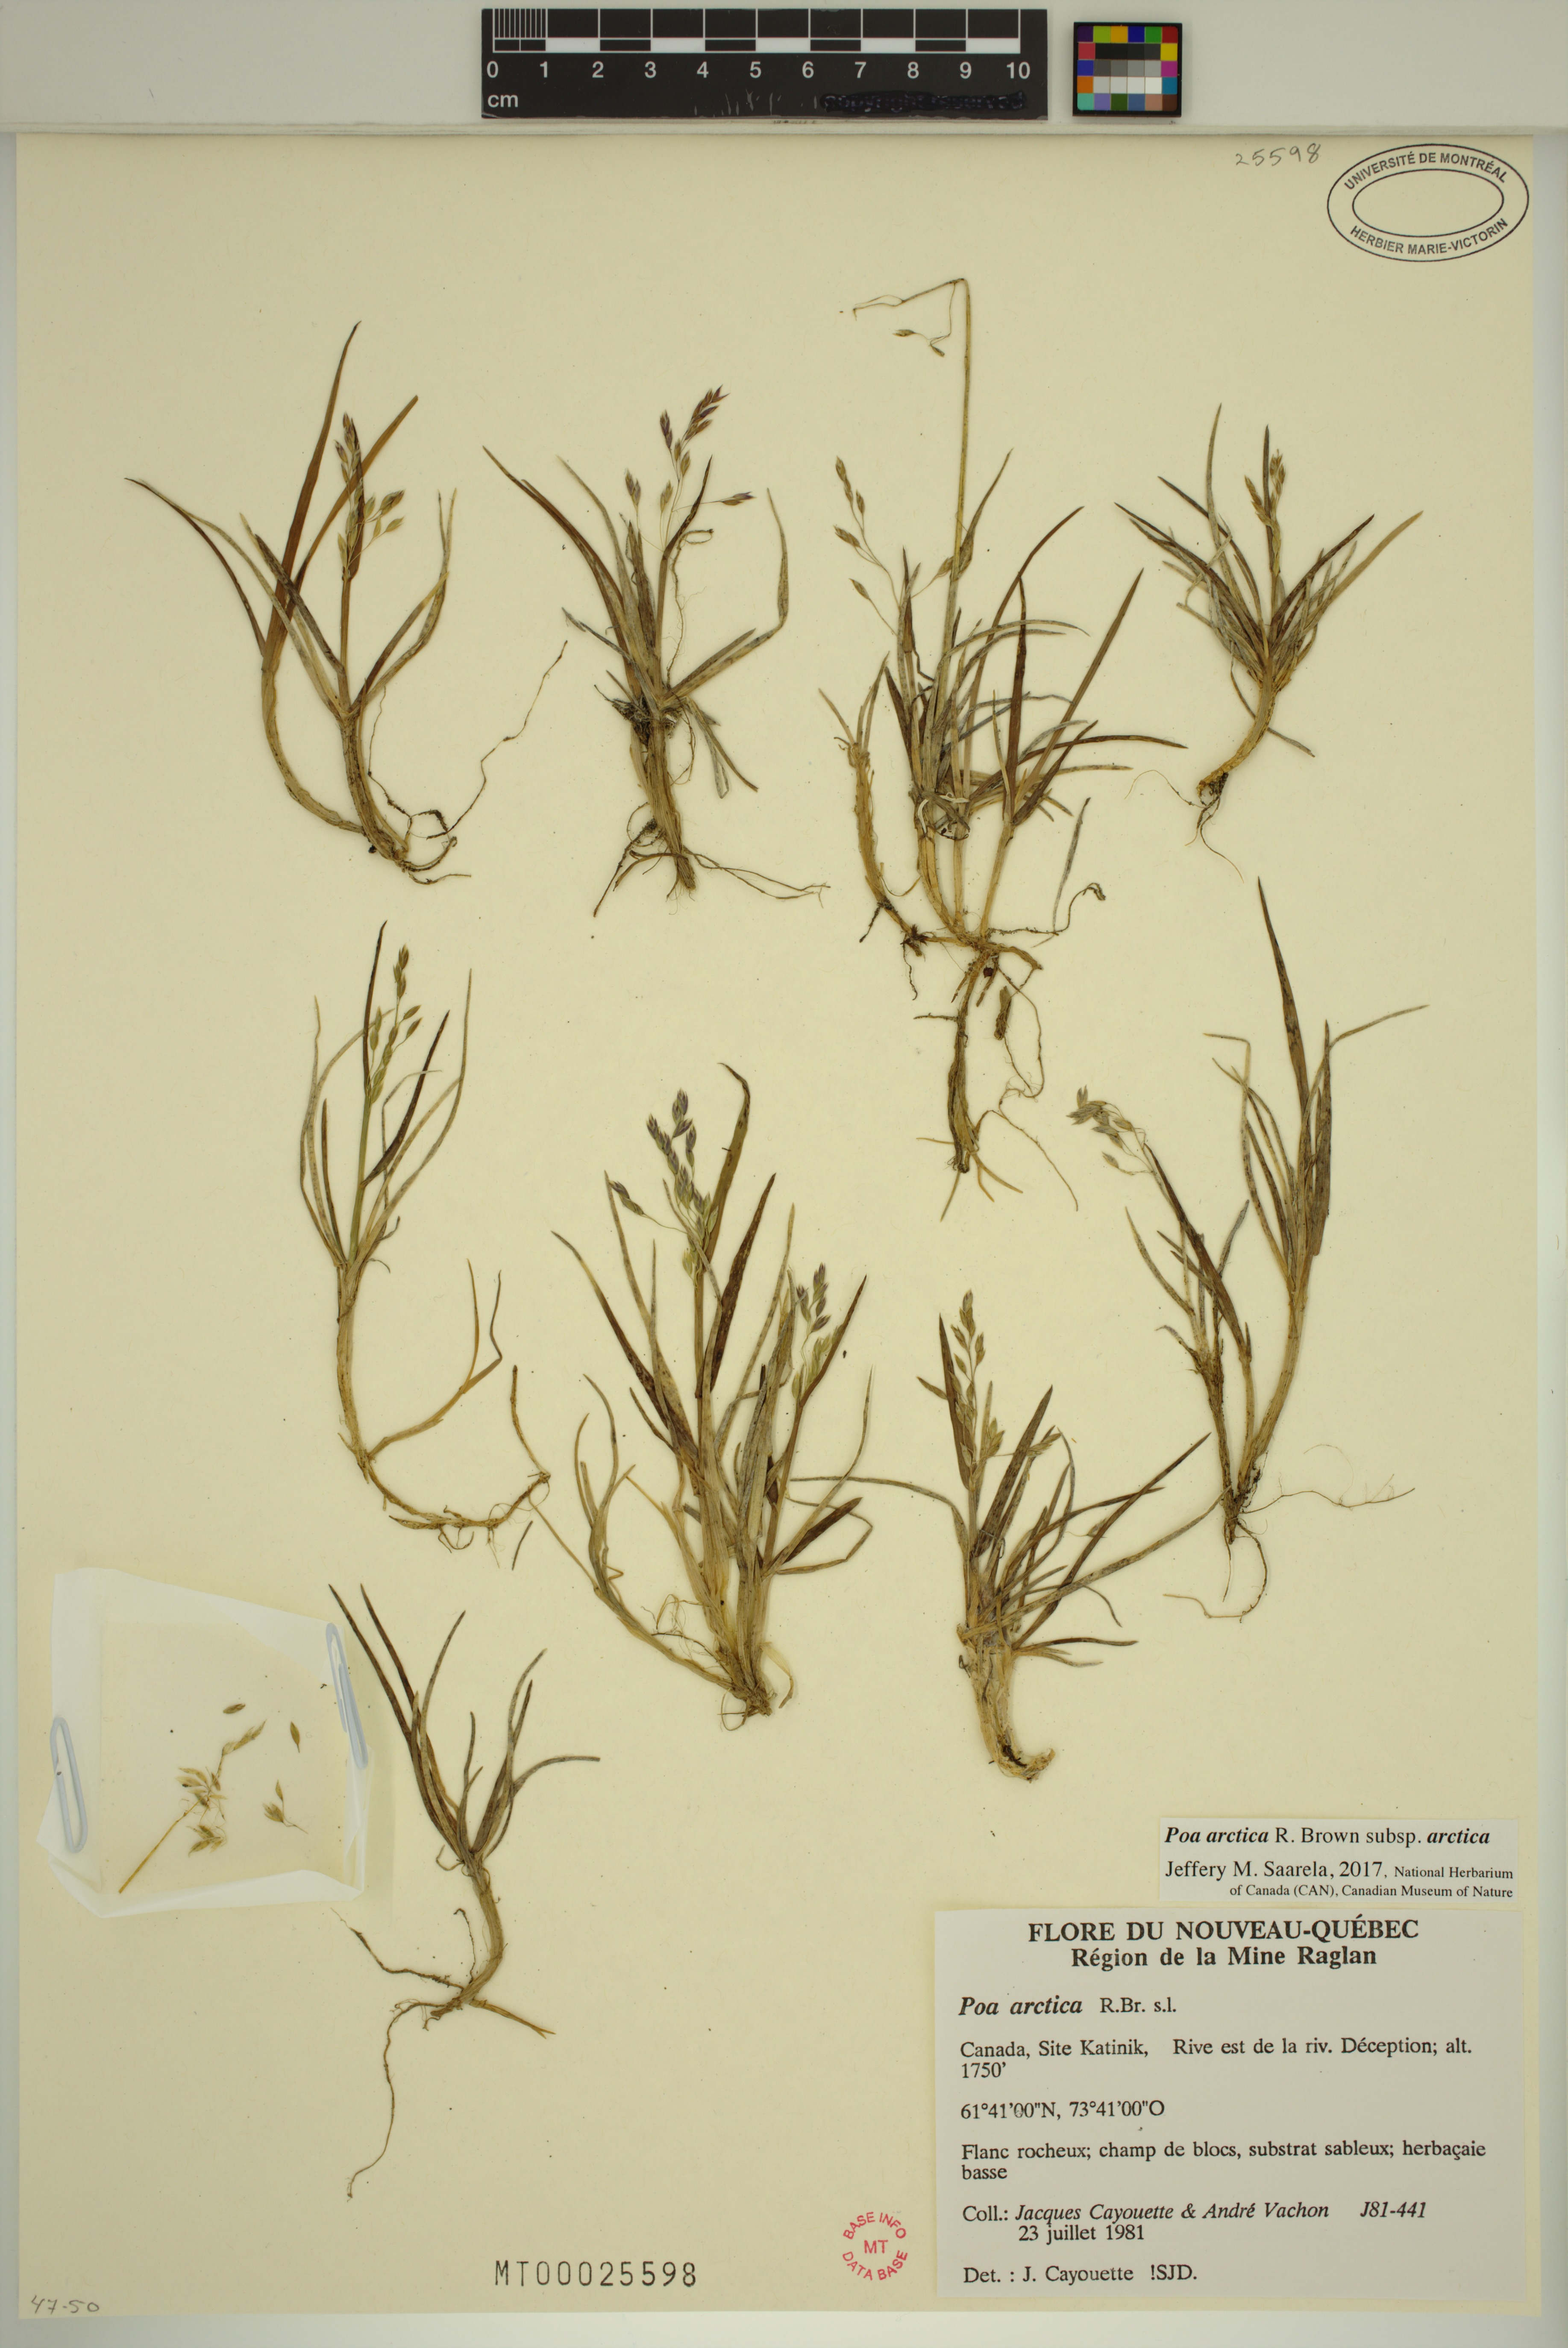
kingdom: Plantae
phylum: Tracheophyta
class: Liliopsida
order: Poales
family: Poaceae
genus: Poa
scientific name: Poa arctica
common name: Arctic bluegrass
